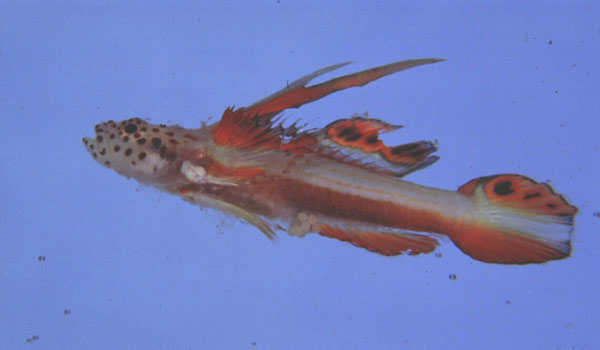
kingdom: Animalia
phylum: Chordata
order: Perciformes
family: Gobiidae
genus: Discordipinna
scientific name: Discordipinna griessingeri
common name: Flame goby
